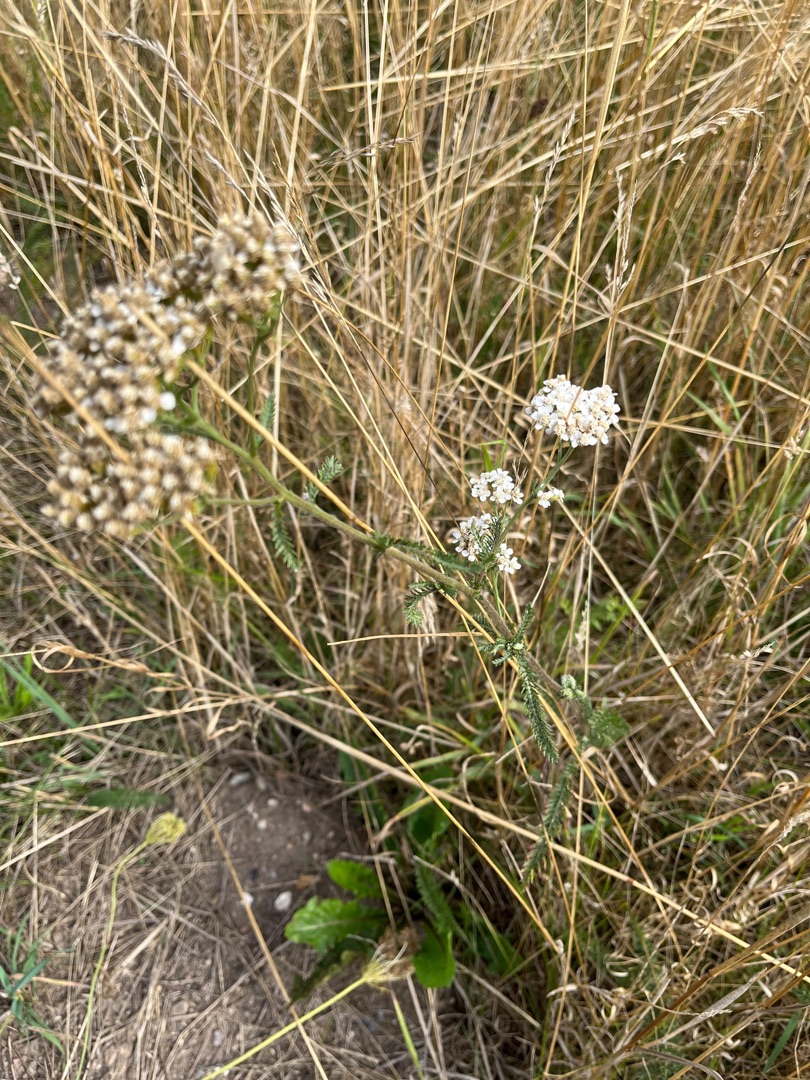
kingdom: Plantae
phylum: Tracheophyta
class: Magnoliopsida
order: Asterales
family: Asteraceae
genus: Achillea
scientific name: Achillea millefolium
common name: Almindelig røllike
